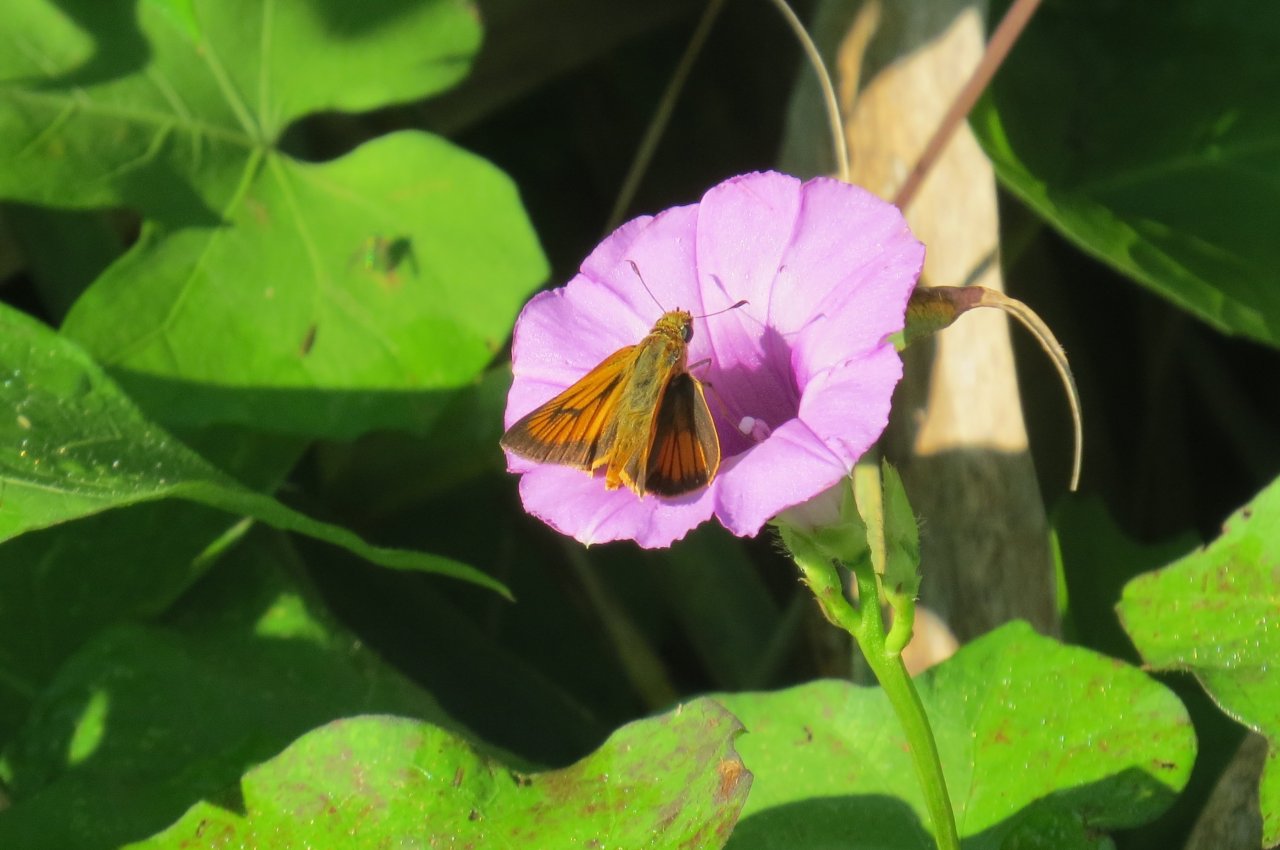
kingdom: Animalia
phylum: Arthropoda
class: Insecta
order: Lepidoptera
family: Hesperiidae
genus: Atrytone
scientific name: Atrytone delaware
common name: Delaware Skipper
